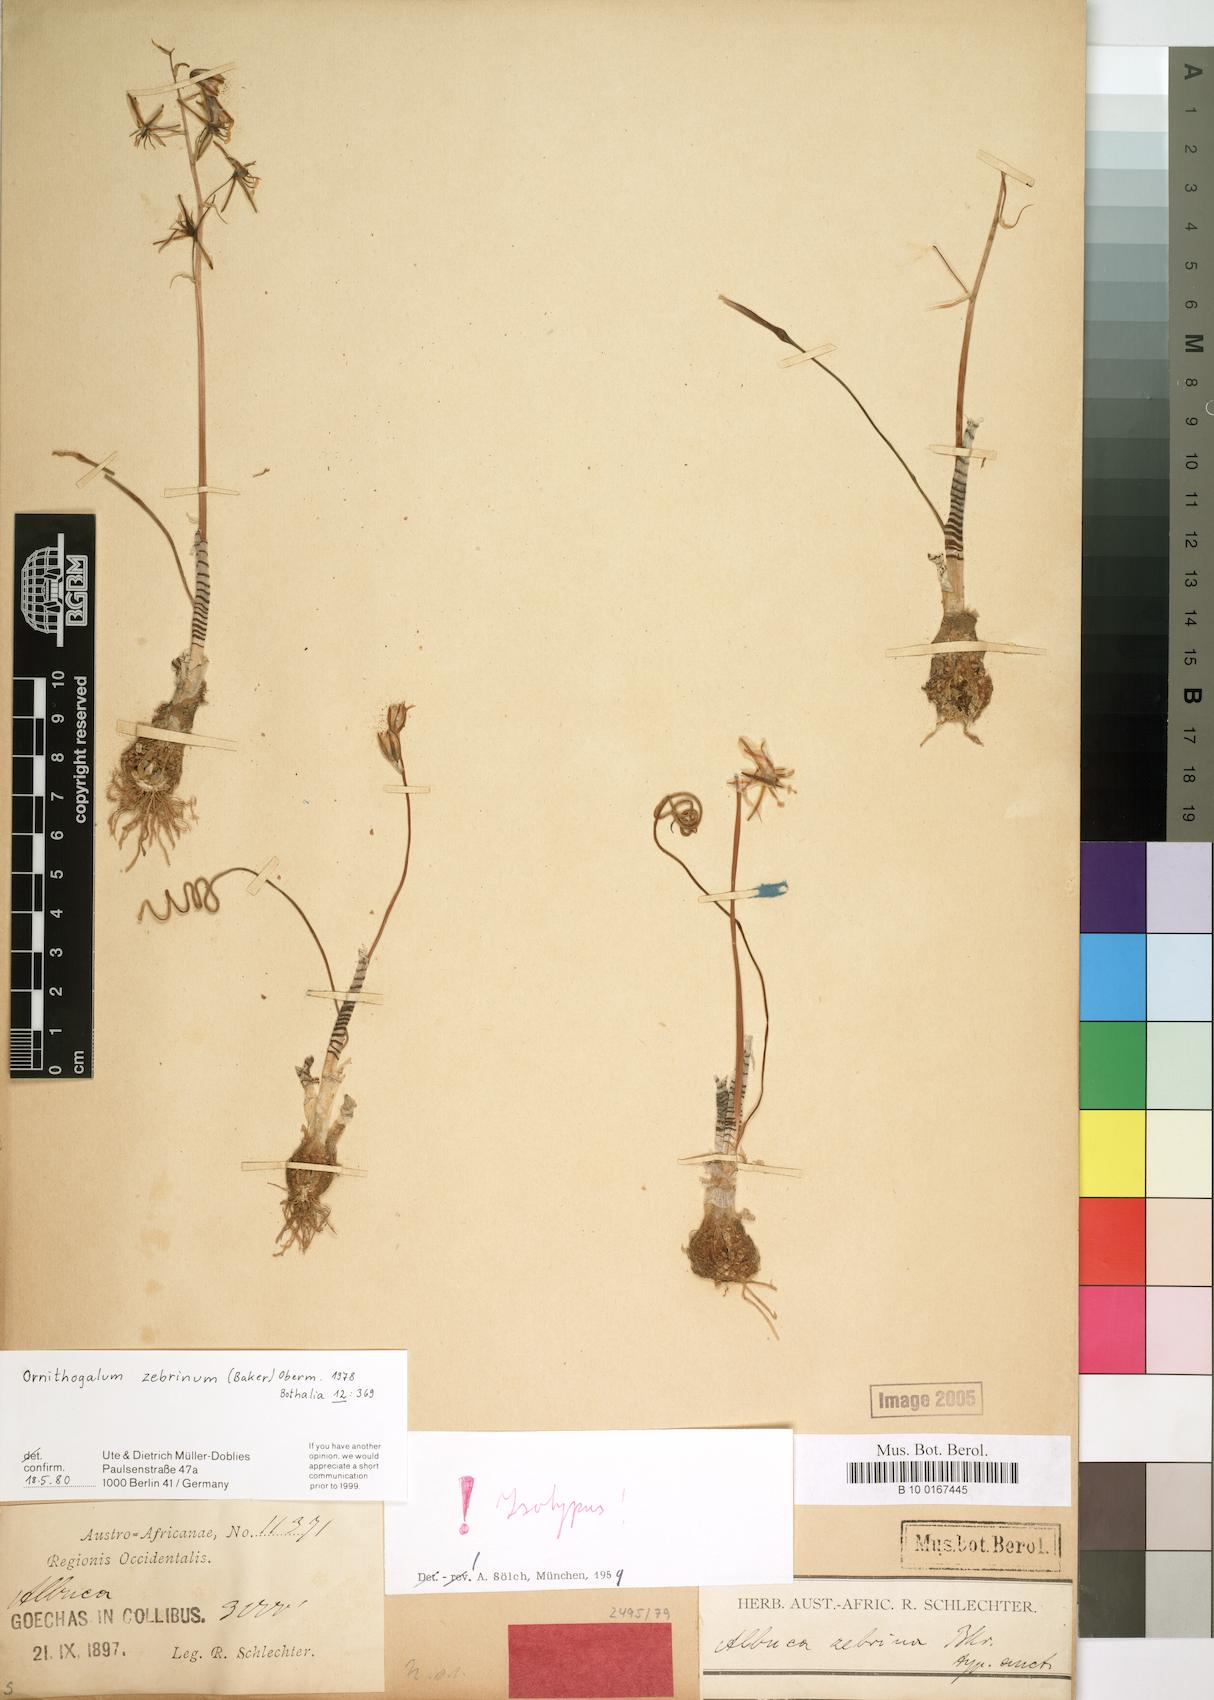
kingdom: Plantae
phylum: Tracheophyta
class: Liliopsida
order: Asparagales
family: Asparagaceae
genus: Albuca
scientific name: Albuca zebrina
